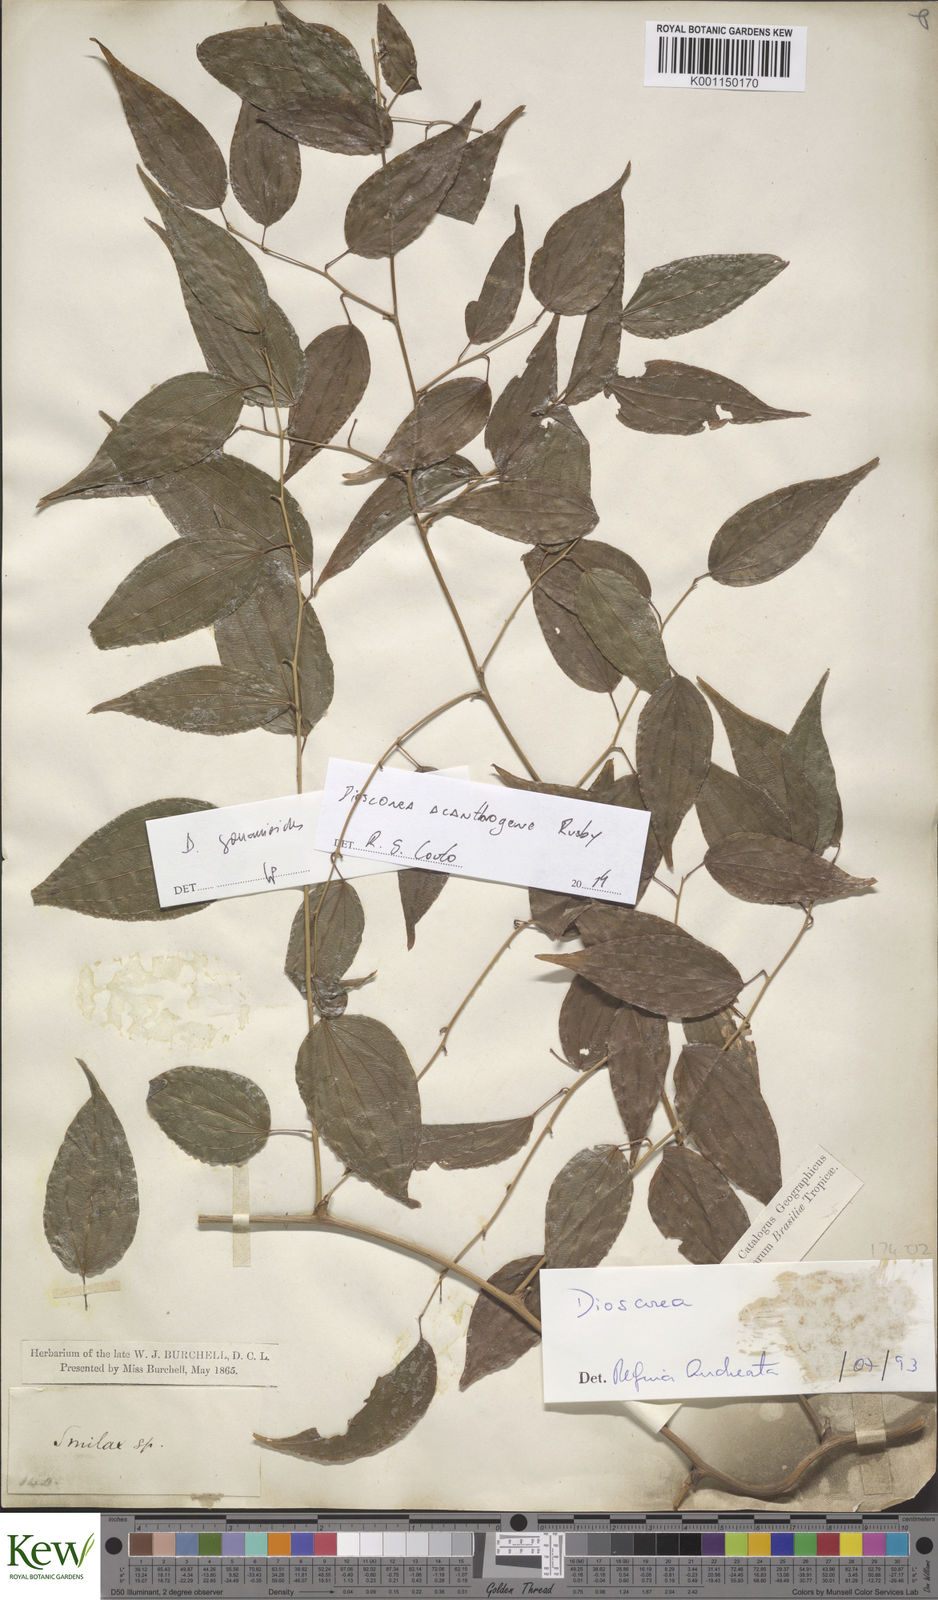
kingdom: Plantae
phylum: Tracheophyta
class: Liliopsida
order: Dioscoreales
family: Dioscoreaceae
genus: Dioscorea
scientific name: Dioscorea acanthogene
